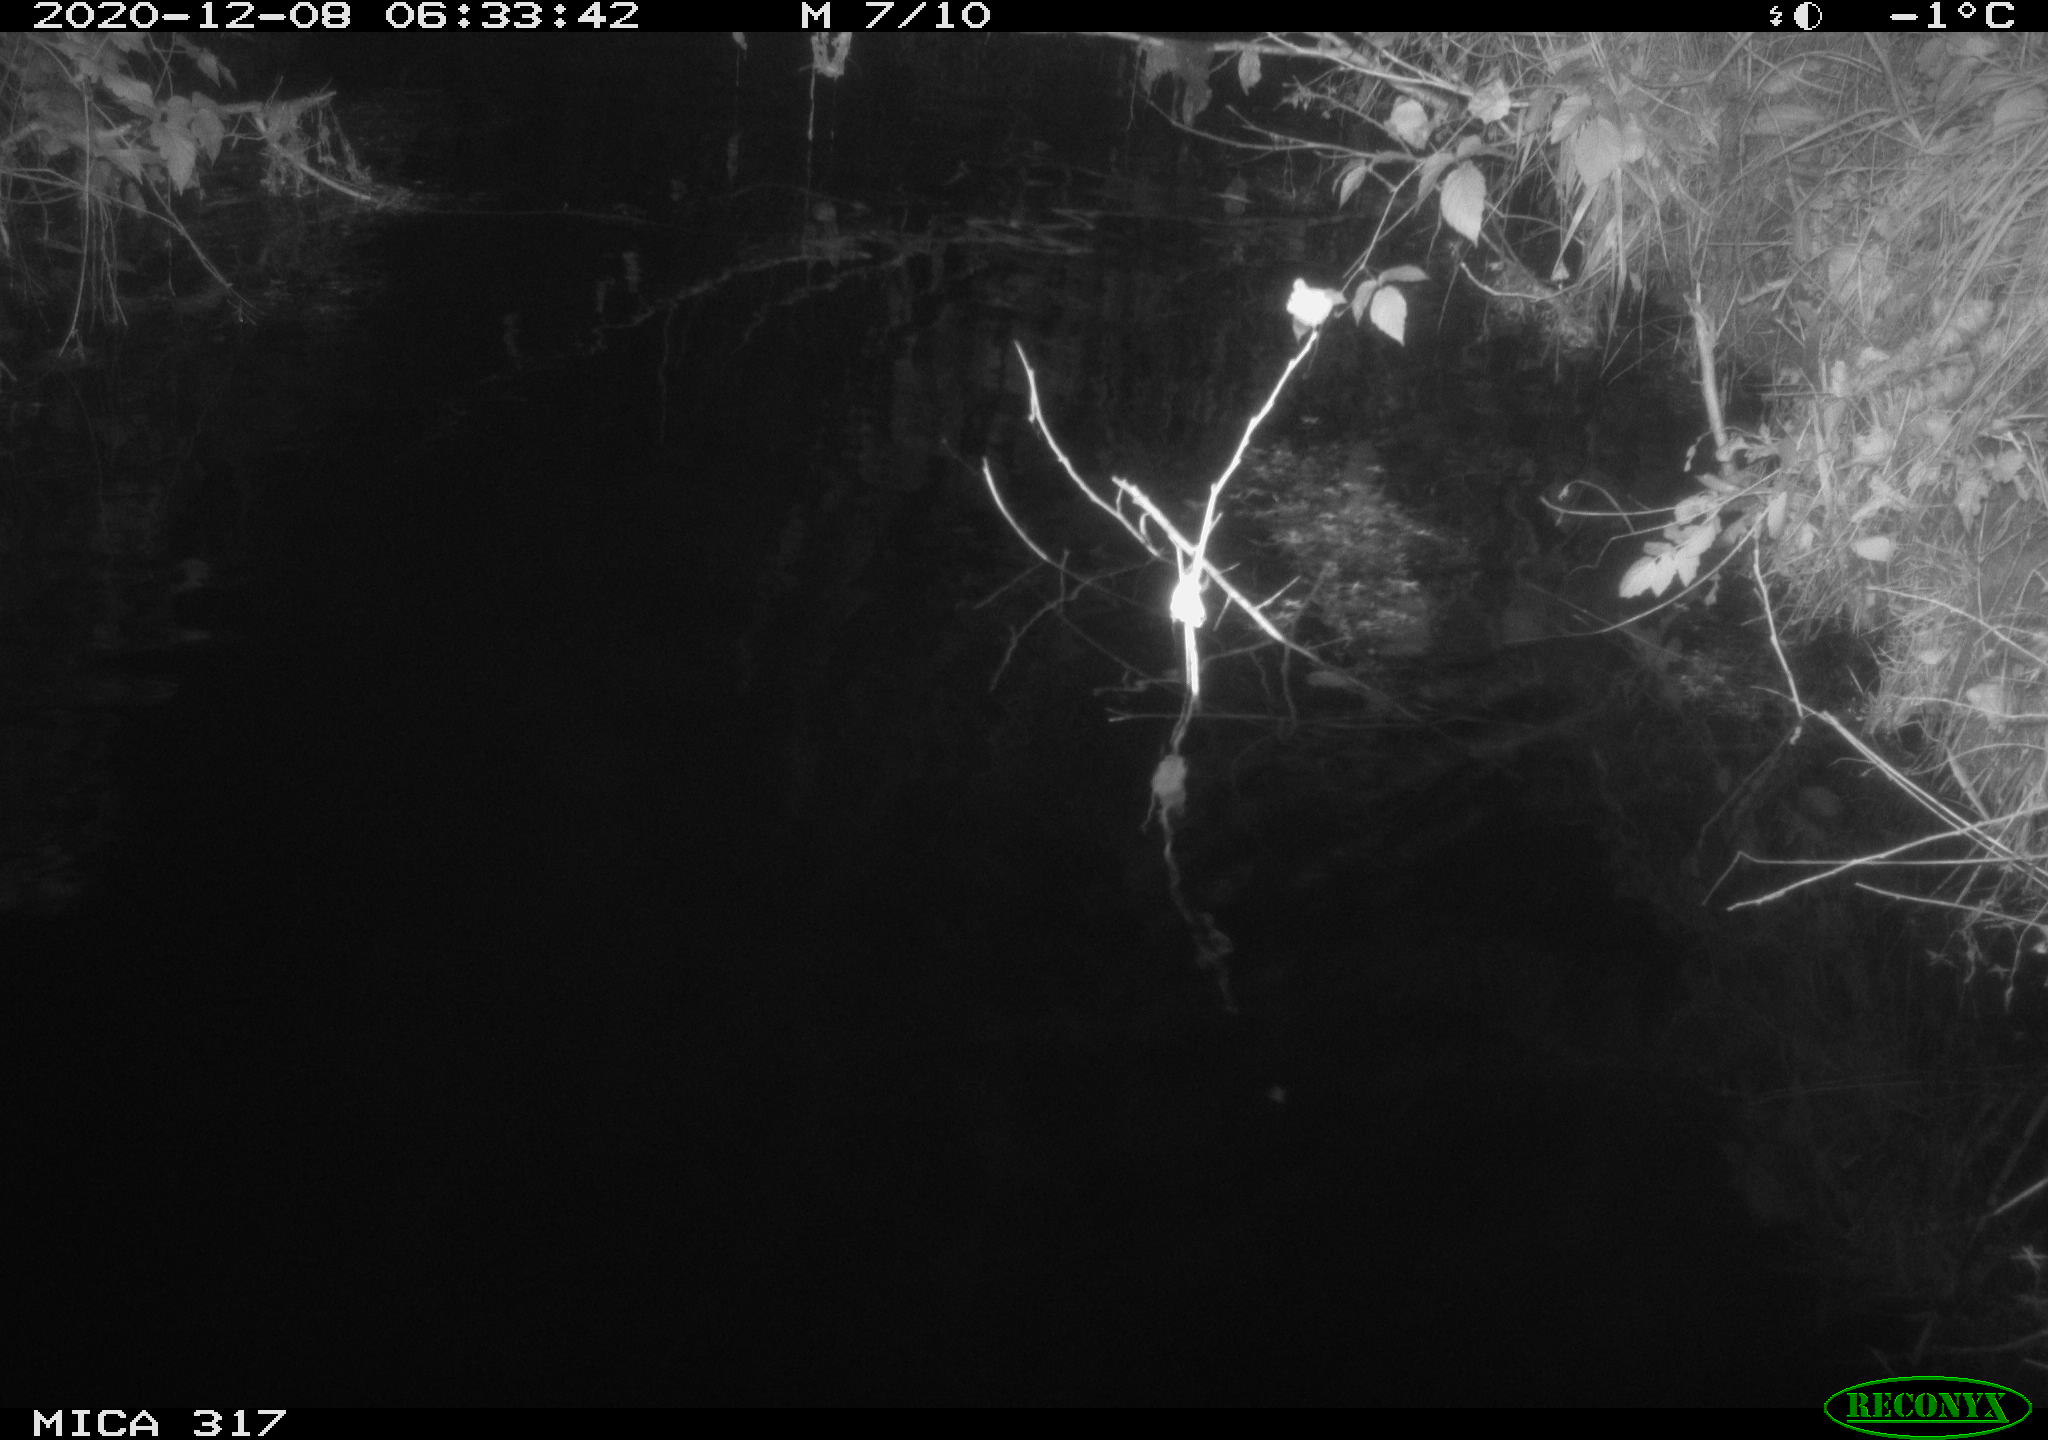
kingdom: Animalia
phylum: Chordata
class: Mammalia
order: Rodentia
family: Muridae
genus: Rattus
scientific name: Rattus norvegicus
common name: Brown rat
